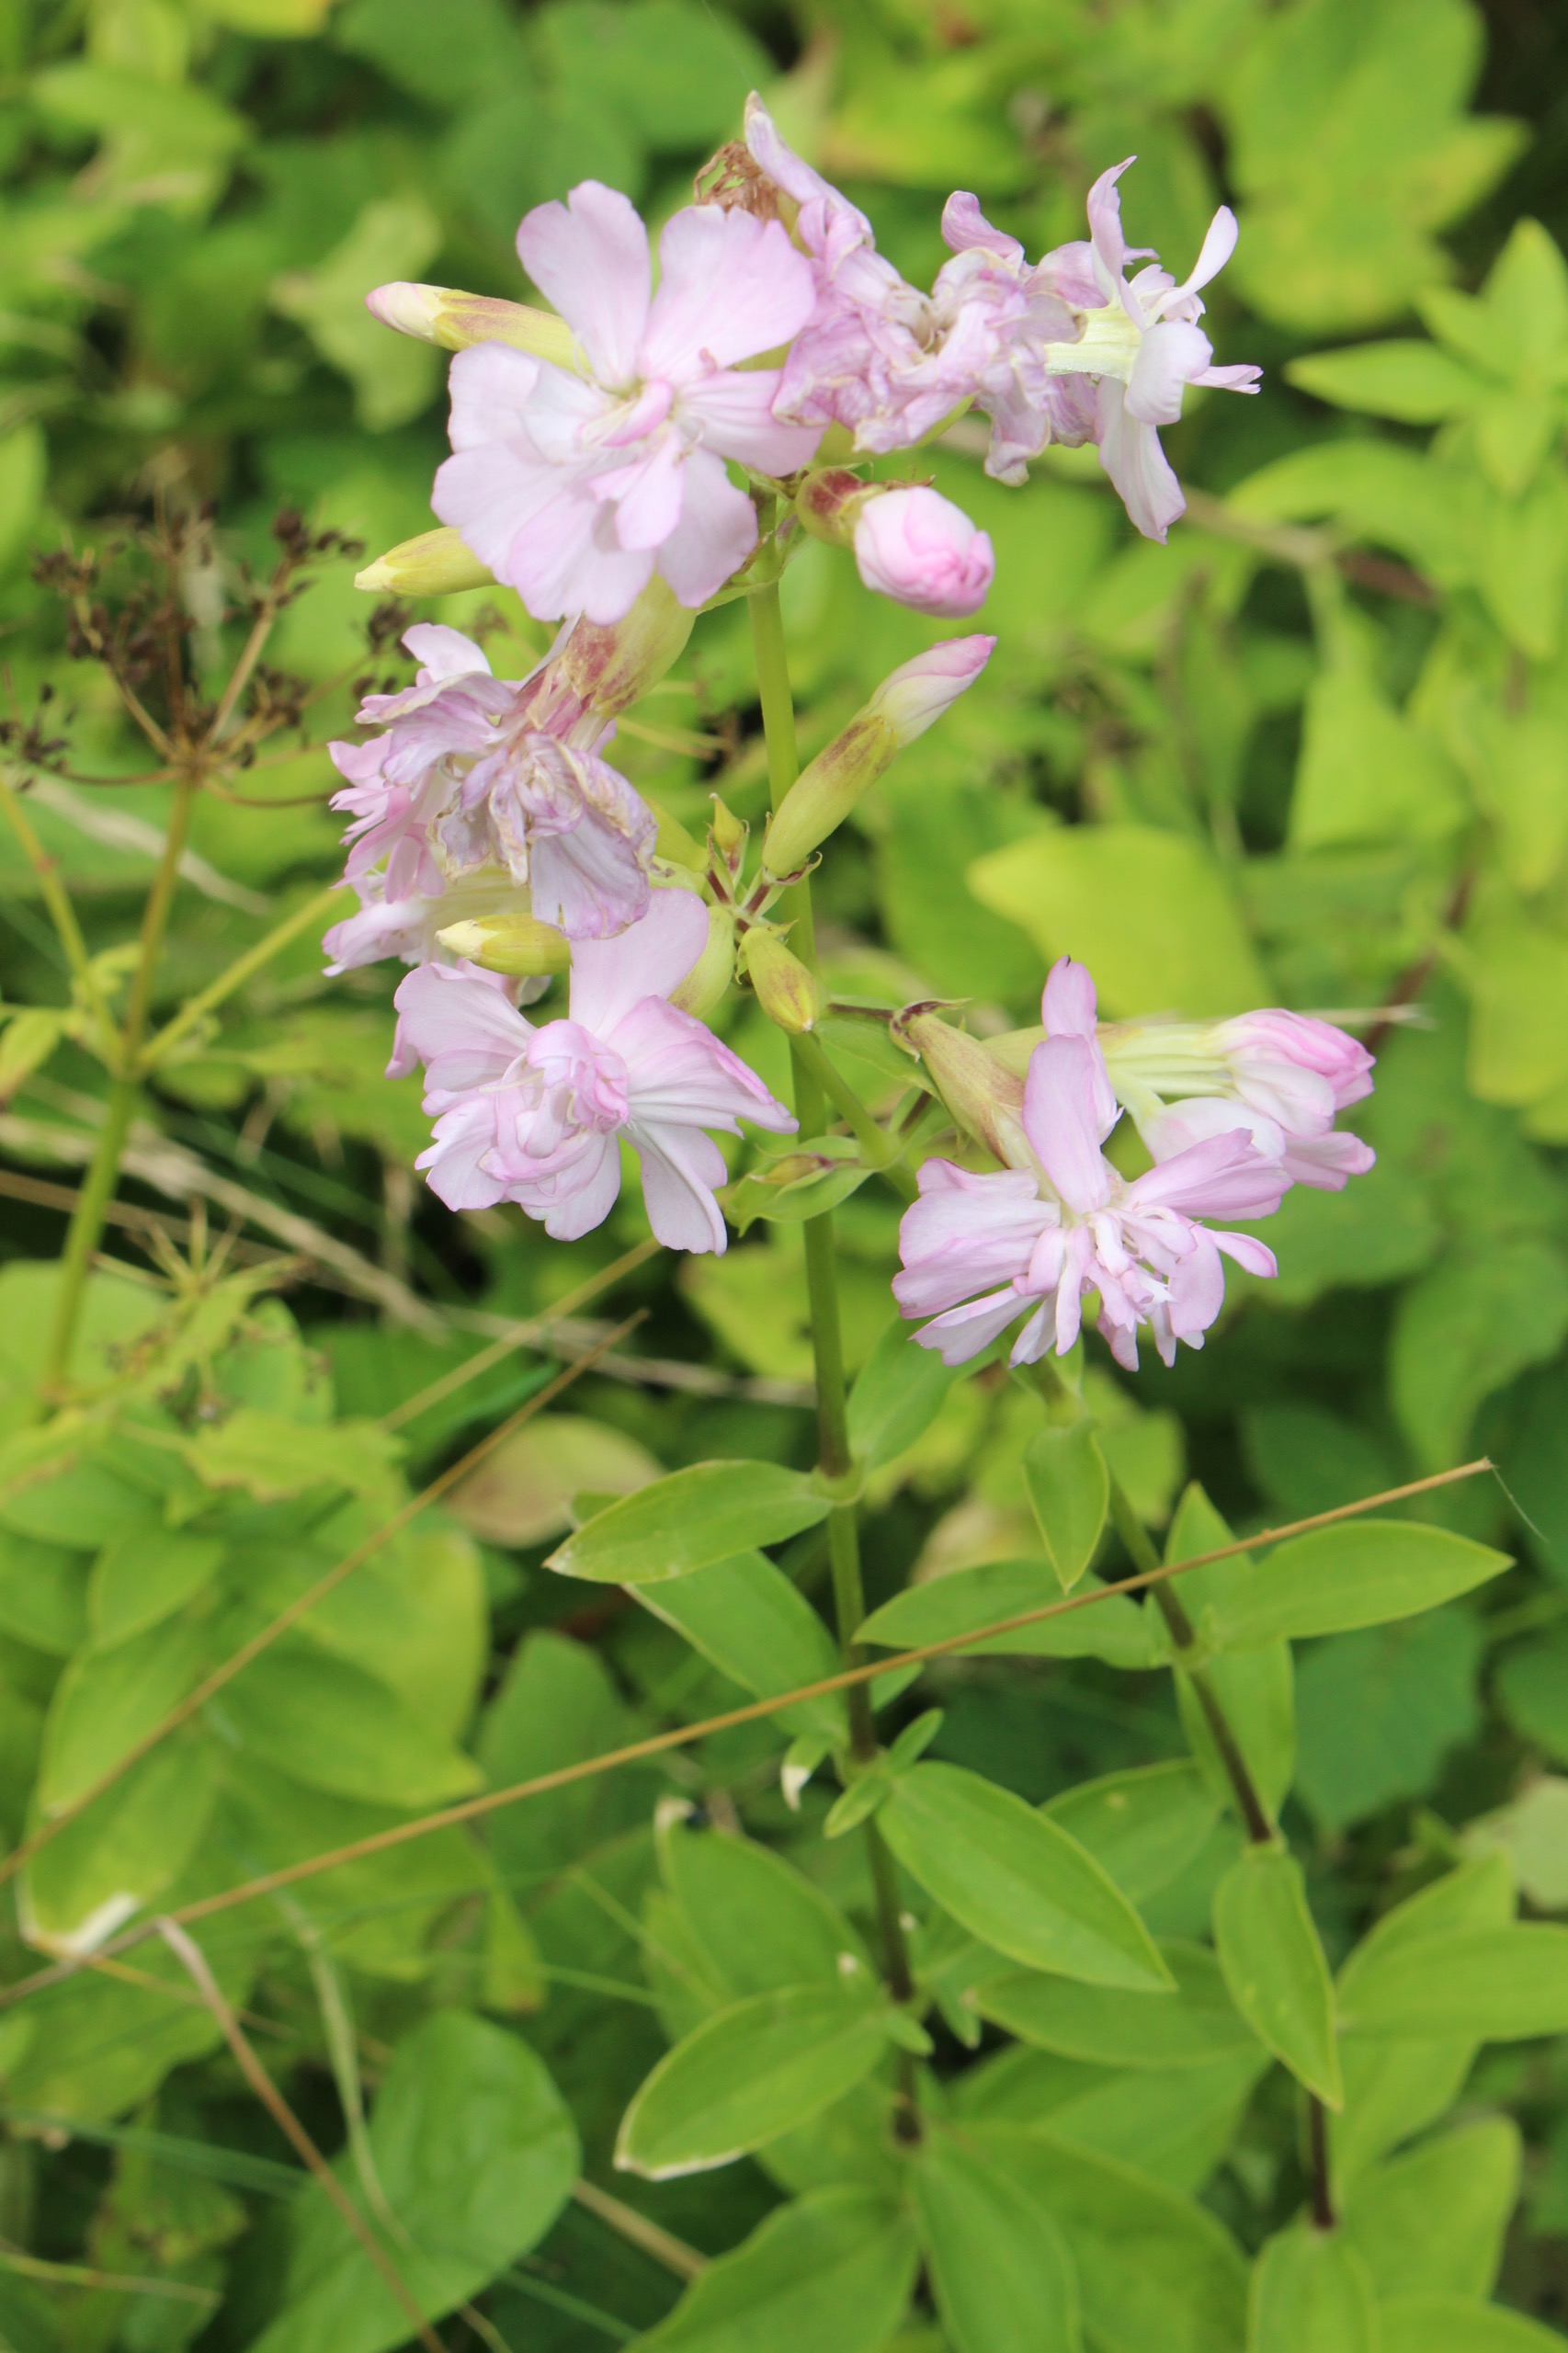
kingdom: Plantae
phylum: Tracheophyta
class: Magnoliopsida
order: Caryophyllales
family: Caryophyllaceae
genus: Saponaria
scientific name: Saponaria officinalis
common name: Sæbeurt
